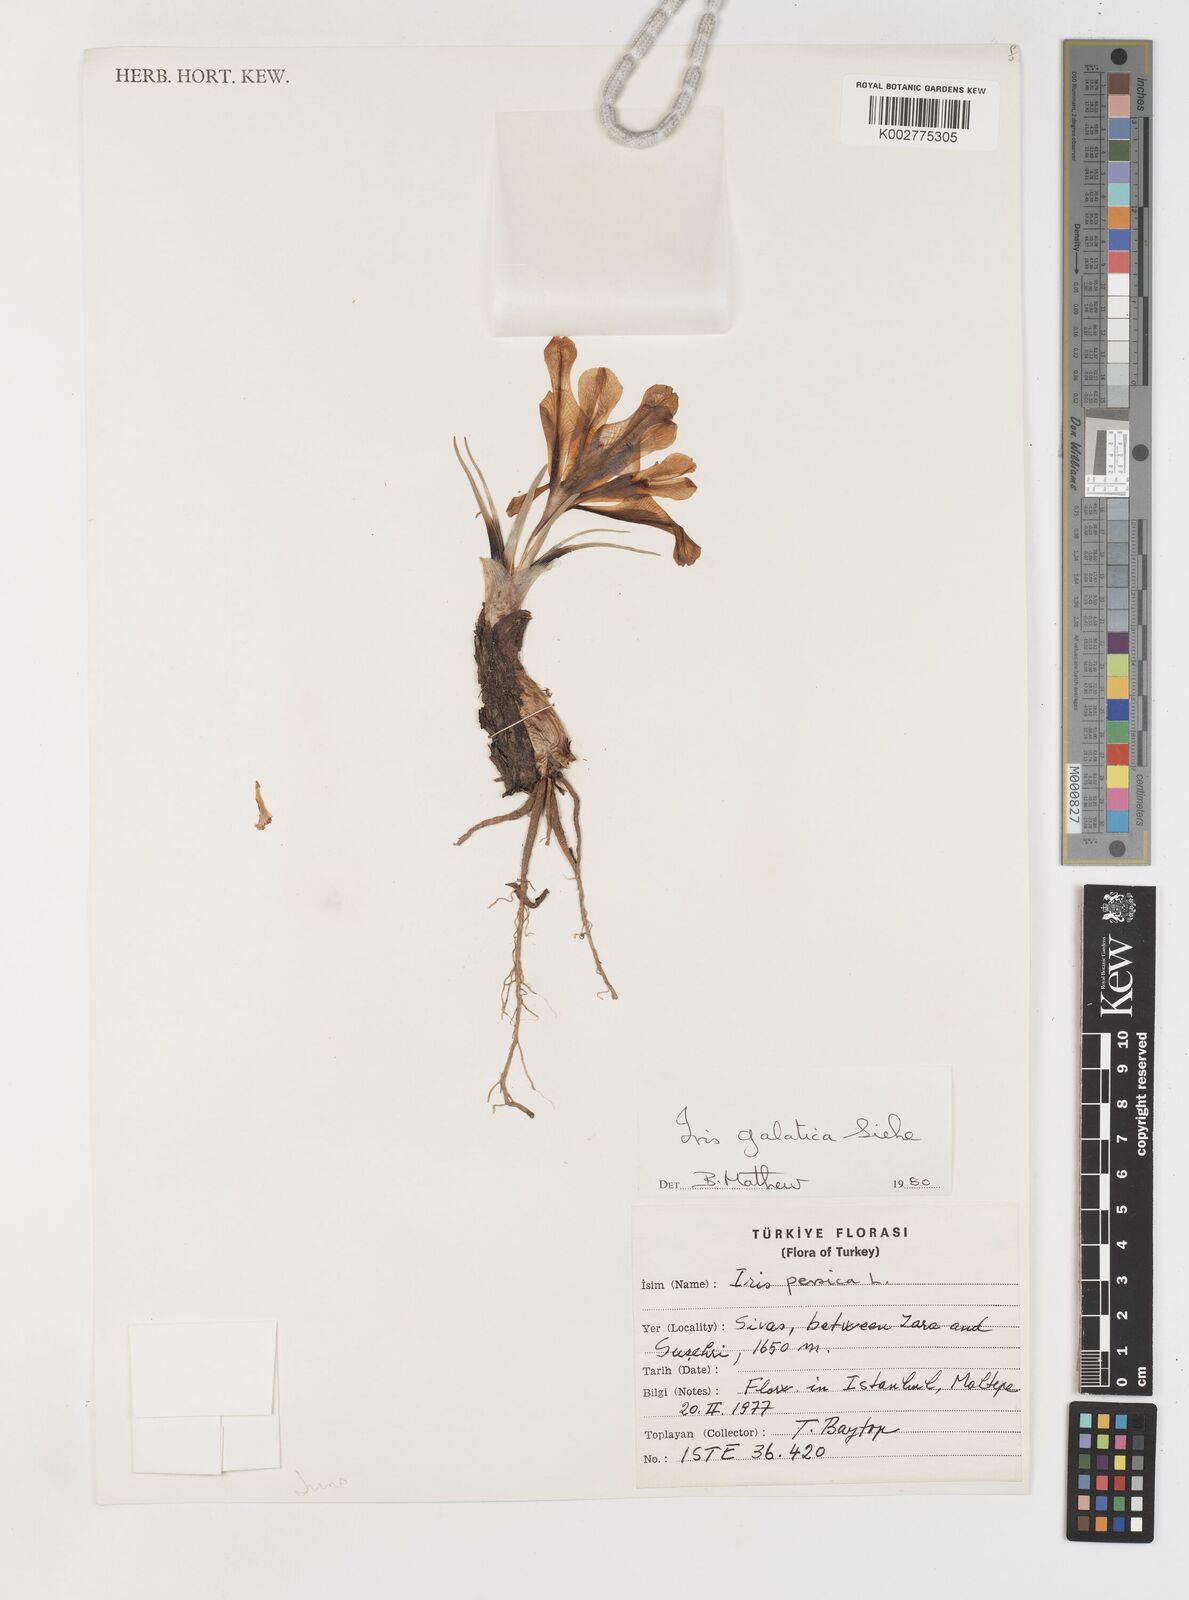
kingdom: Plantae
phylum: Tracheophyta
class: Liliopsida
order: Asparagales
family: Iridaceae
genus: Iris
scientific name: Iris
